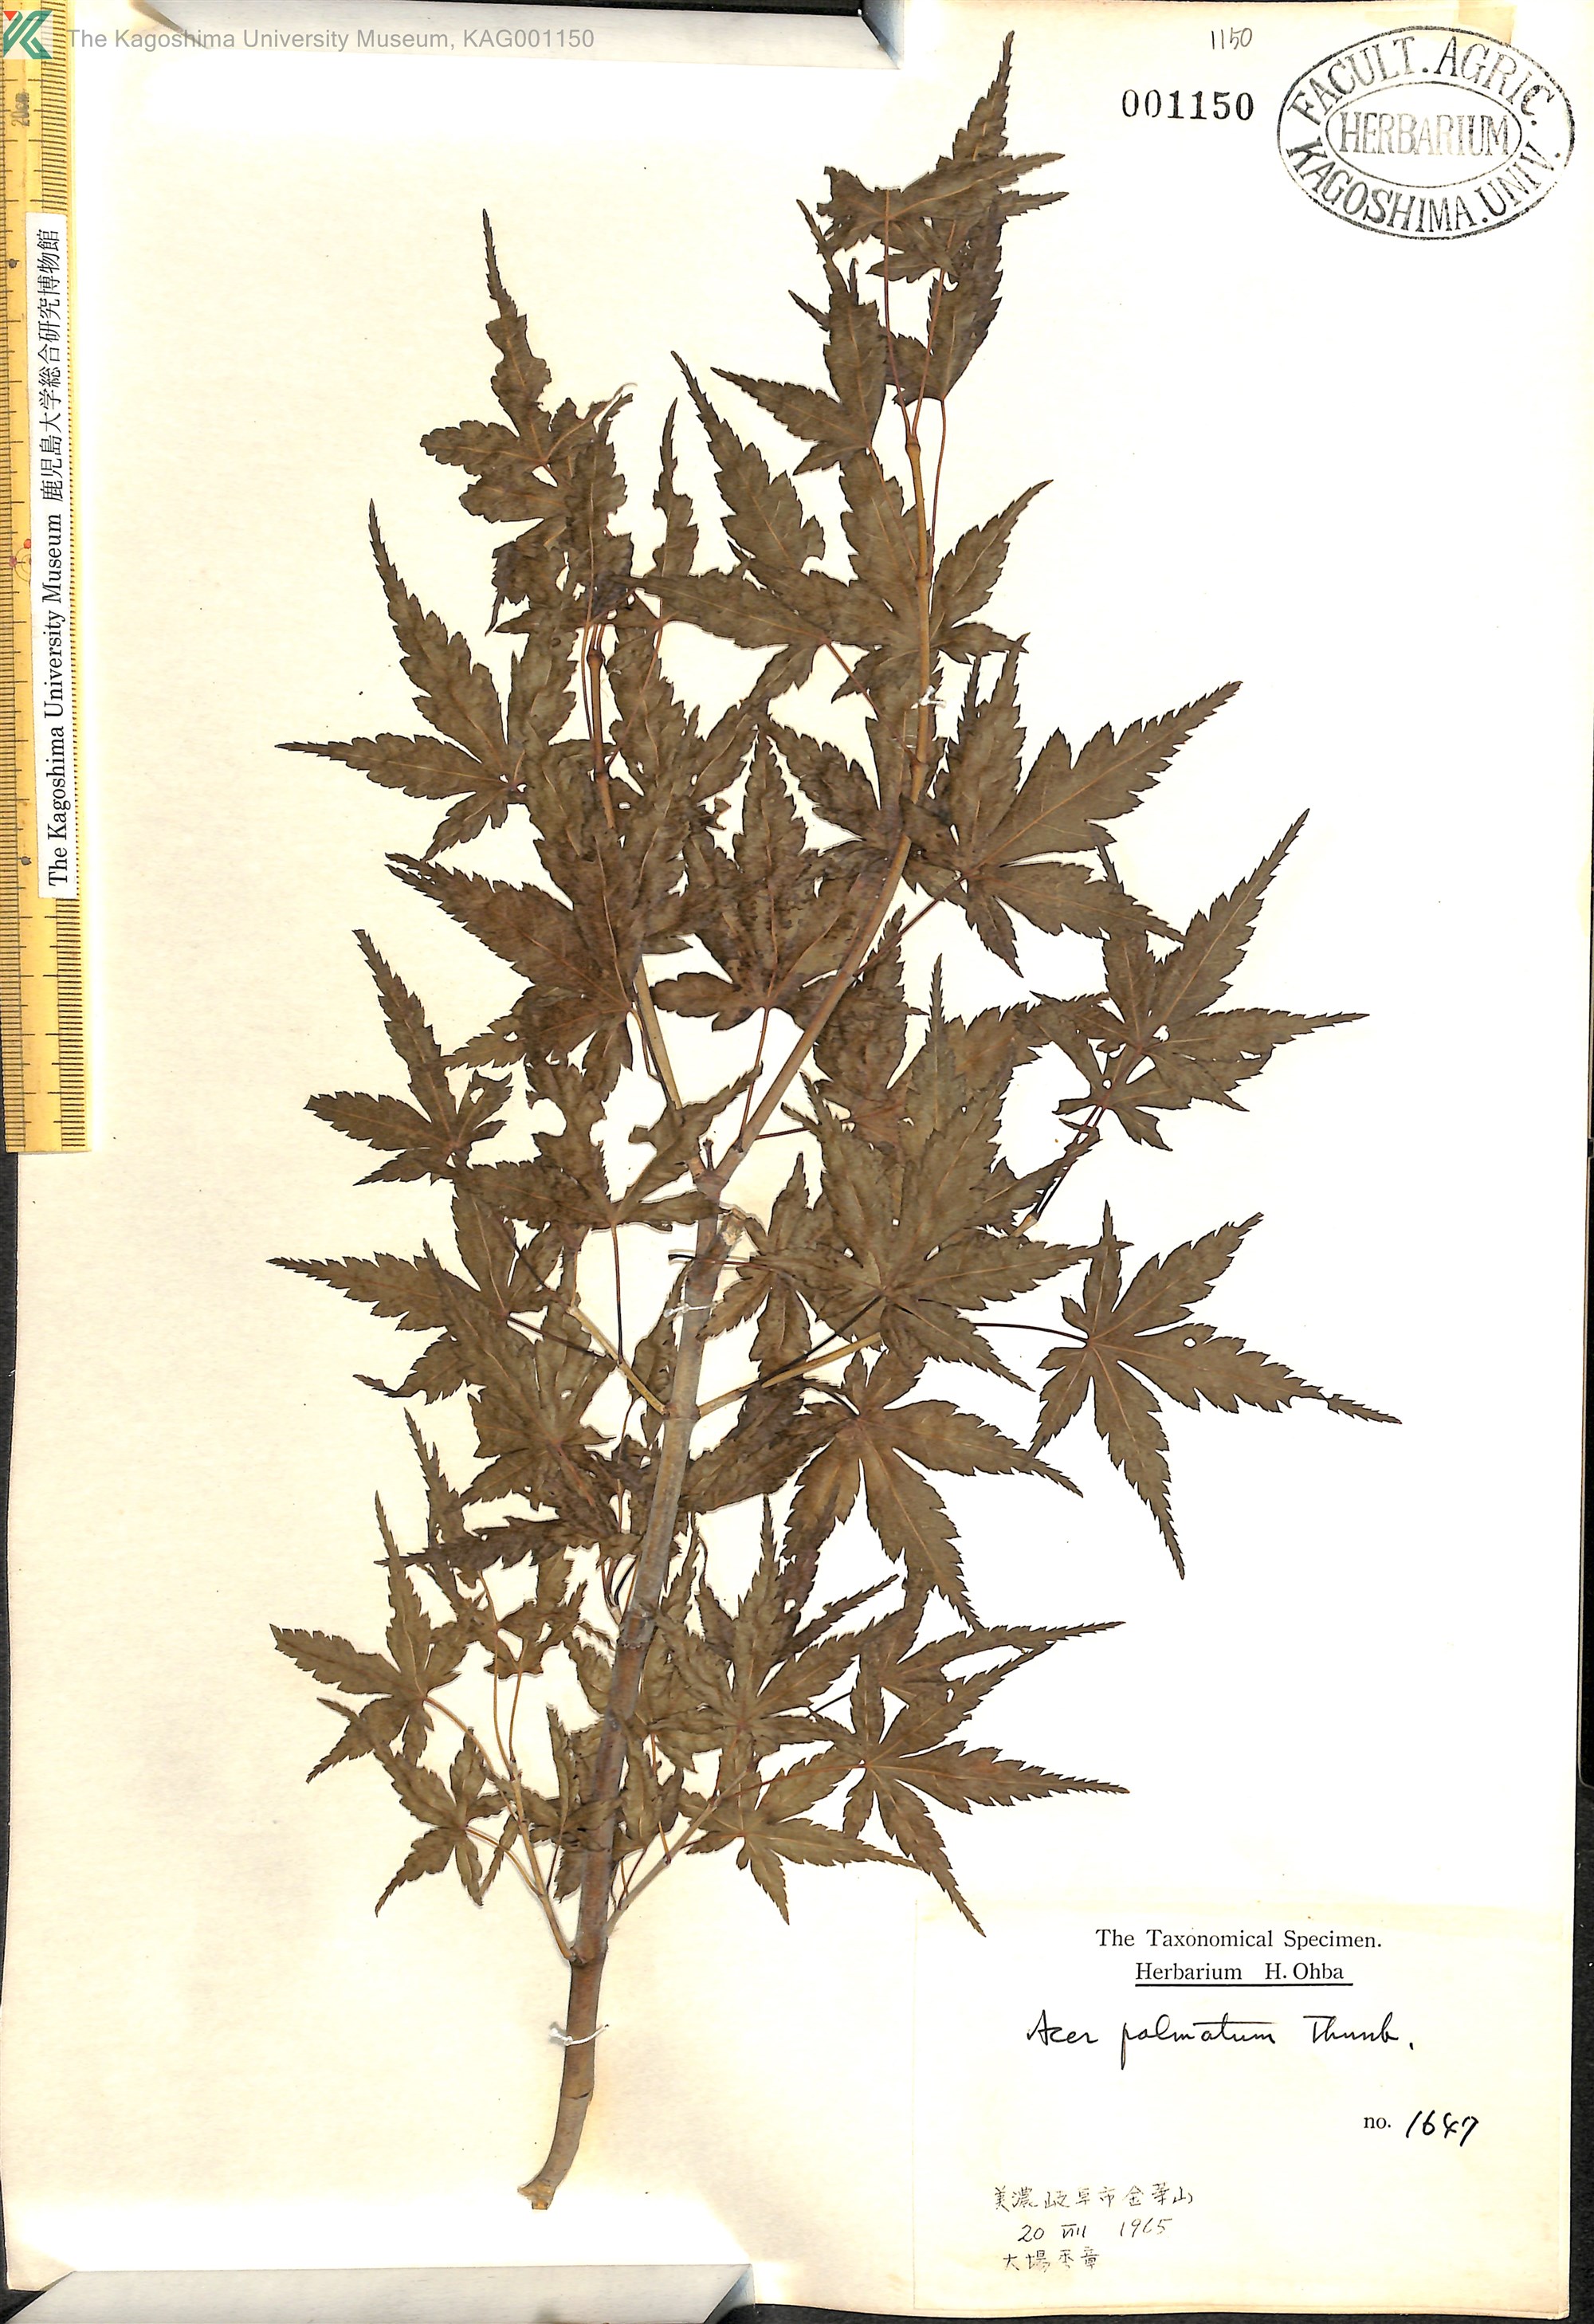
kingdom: Plantae
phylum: Tracheophyta
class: Magnoliopsida
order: Sapindales
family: Sapindaceae
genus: Acer
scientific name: Acer palmatum
